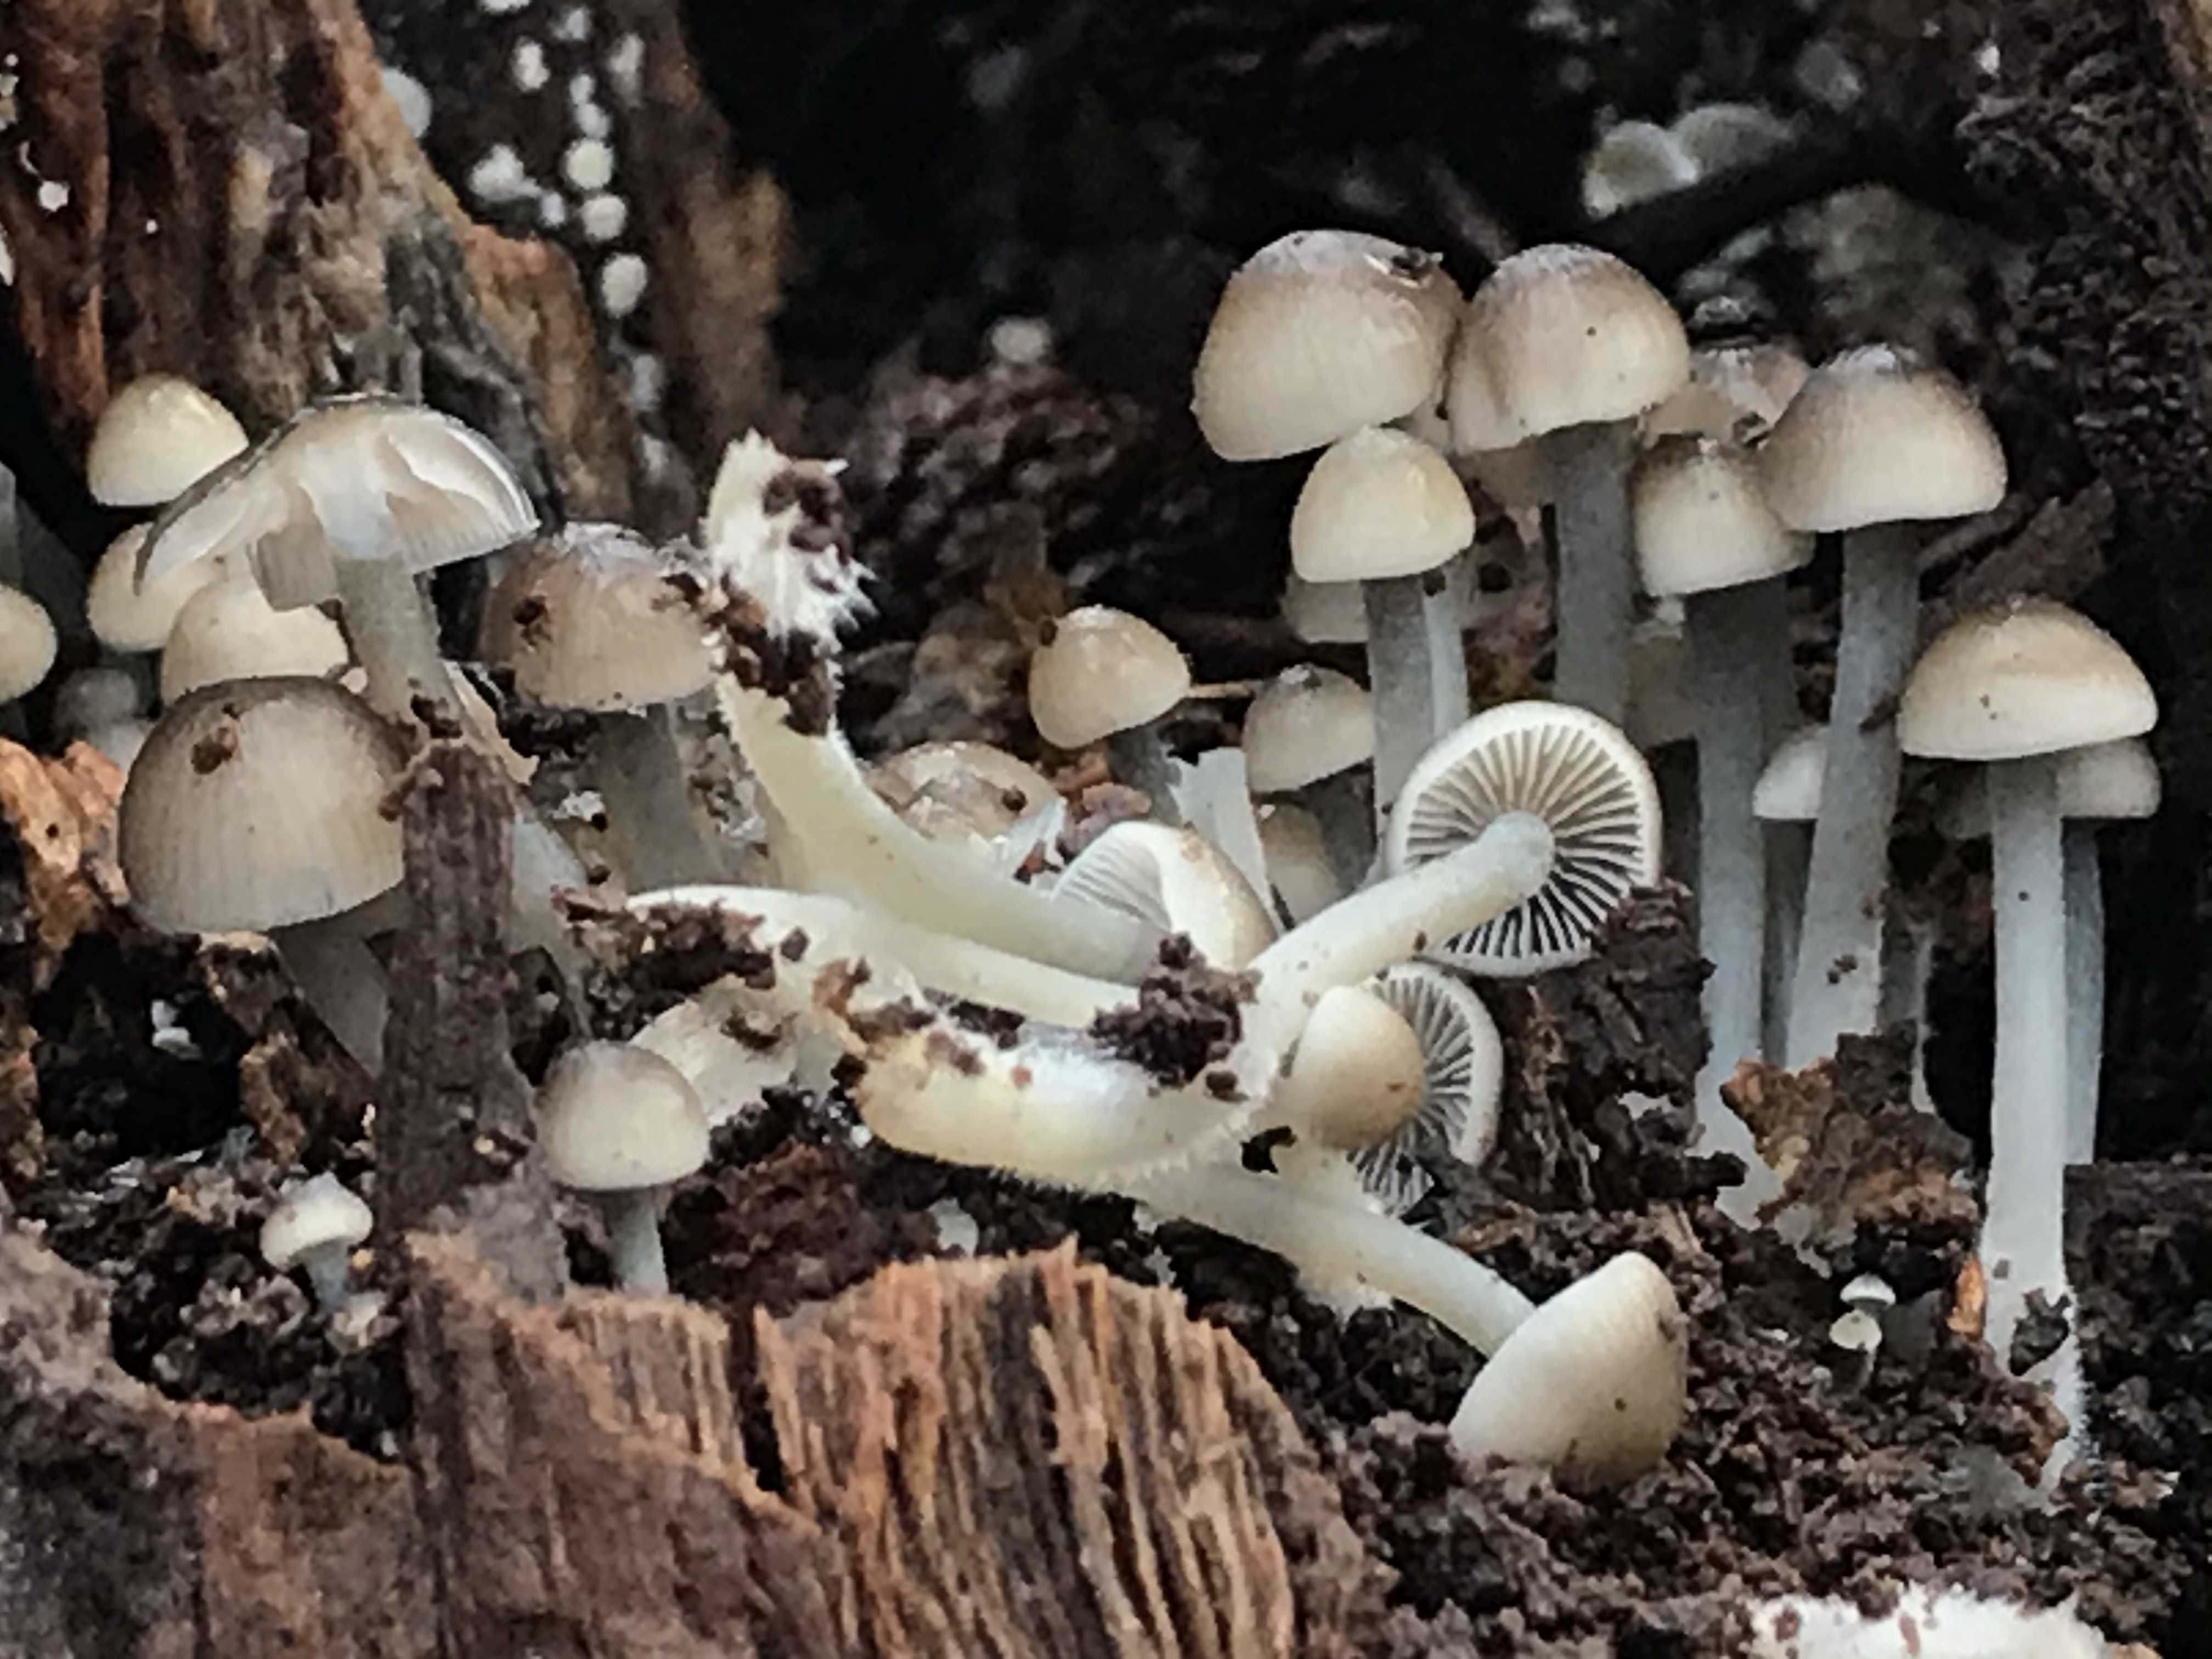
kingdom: Fungi
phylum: Basidiomycota
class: Agaricomycetes
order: Agaricales
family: Mycenaceae
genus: Mycena
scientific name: Mycena
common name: huesvamp
